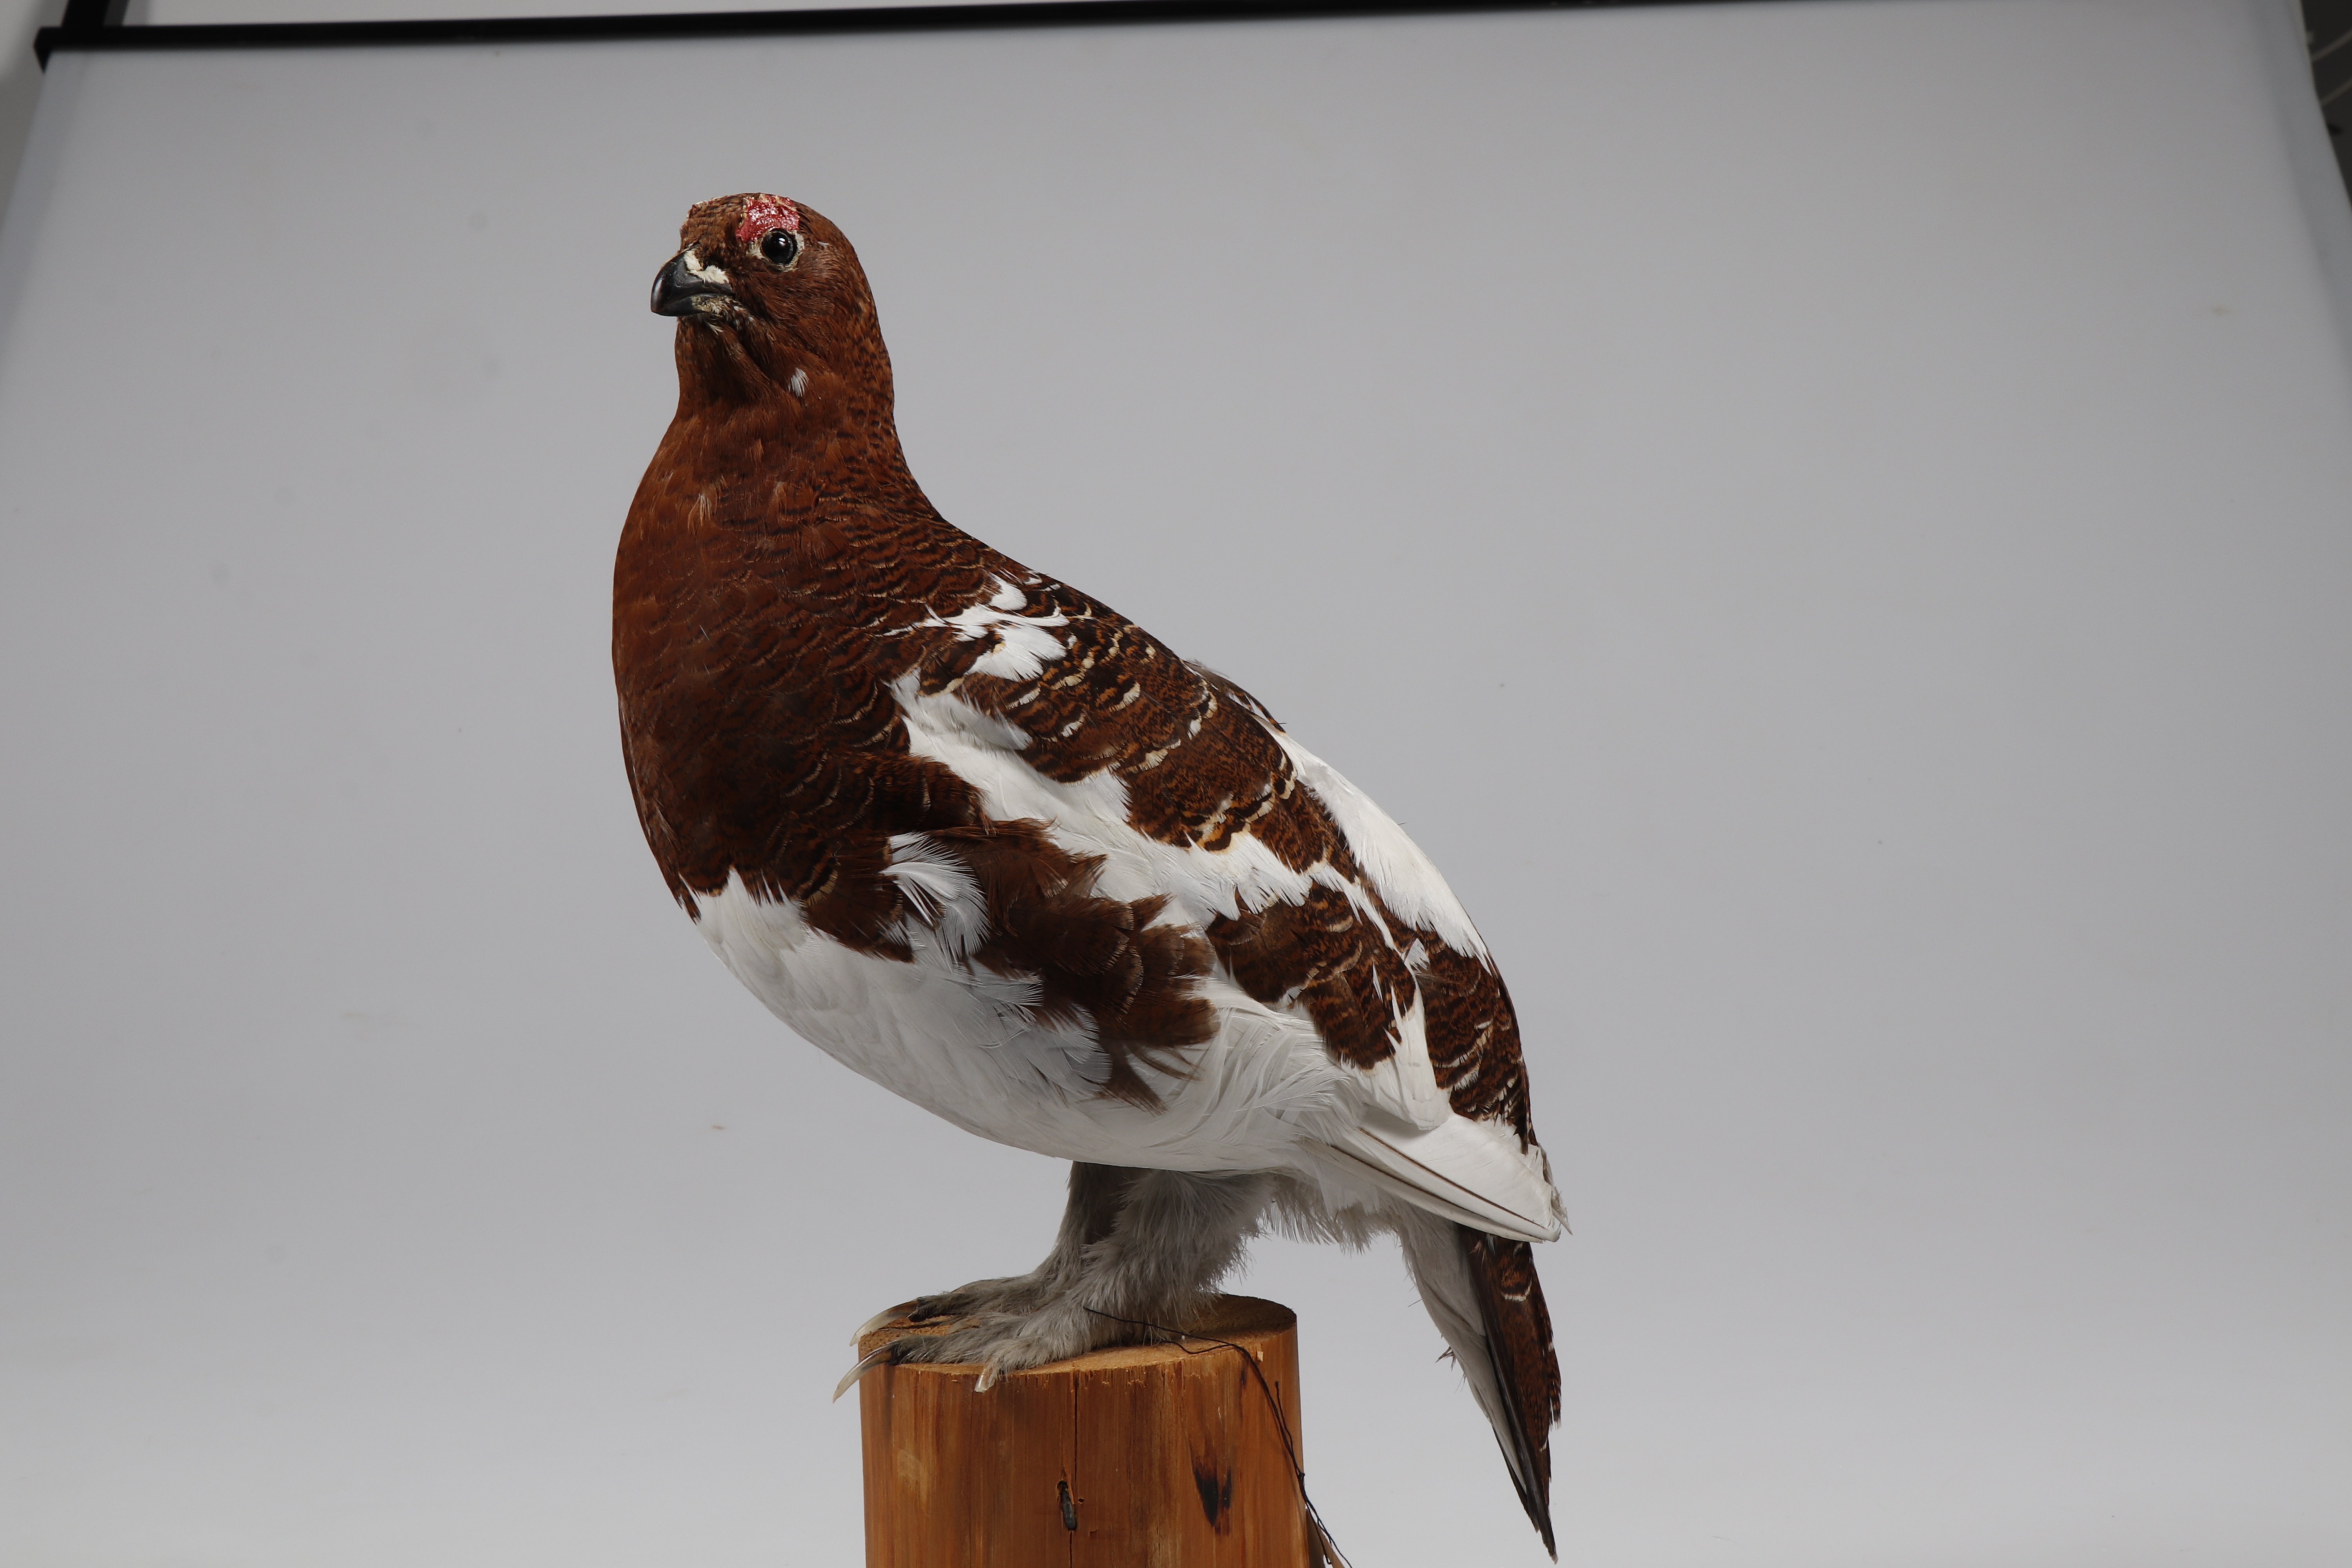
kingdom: Animalia
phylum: Chordata
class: Aves
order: Galliformes
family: Phasianidae
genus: Lagopus
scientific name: Lagopus lagopus
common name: Willow ptarmigan
